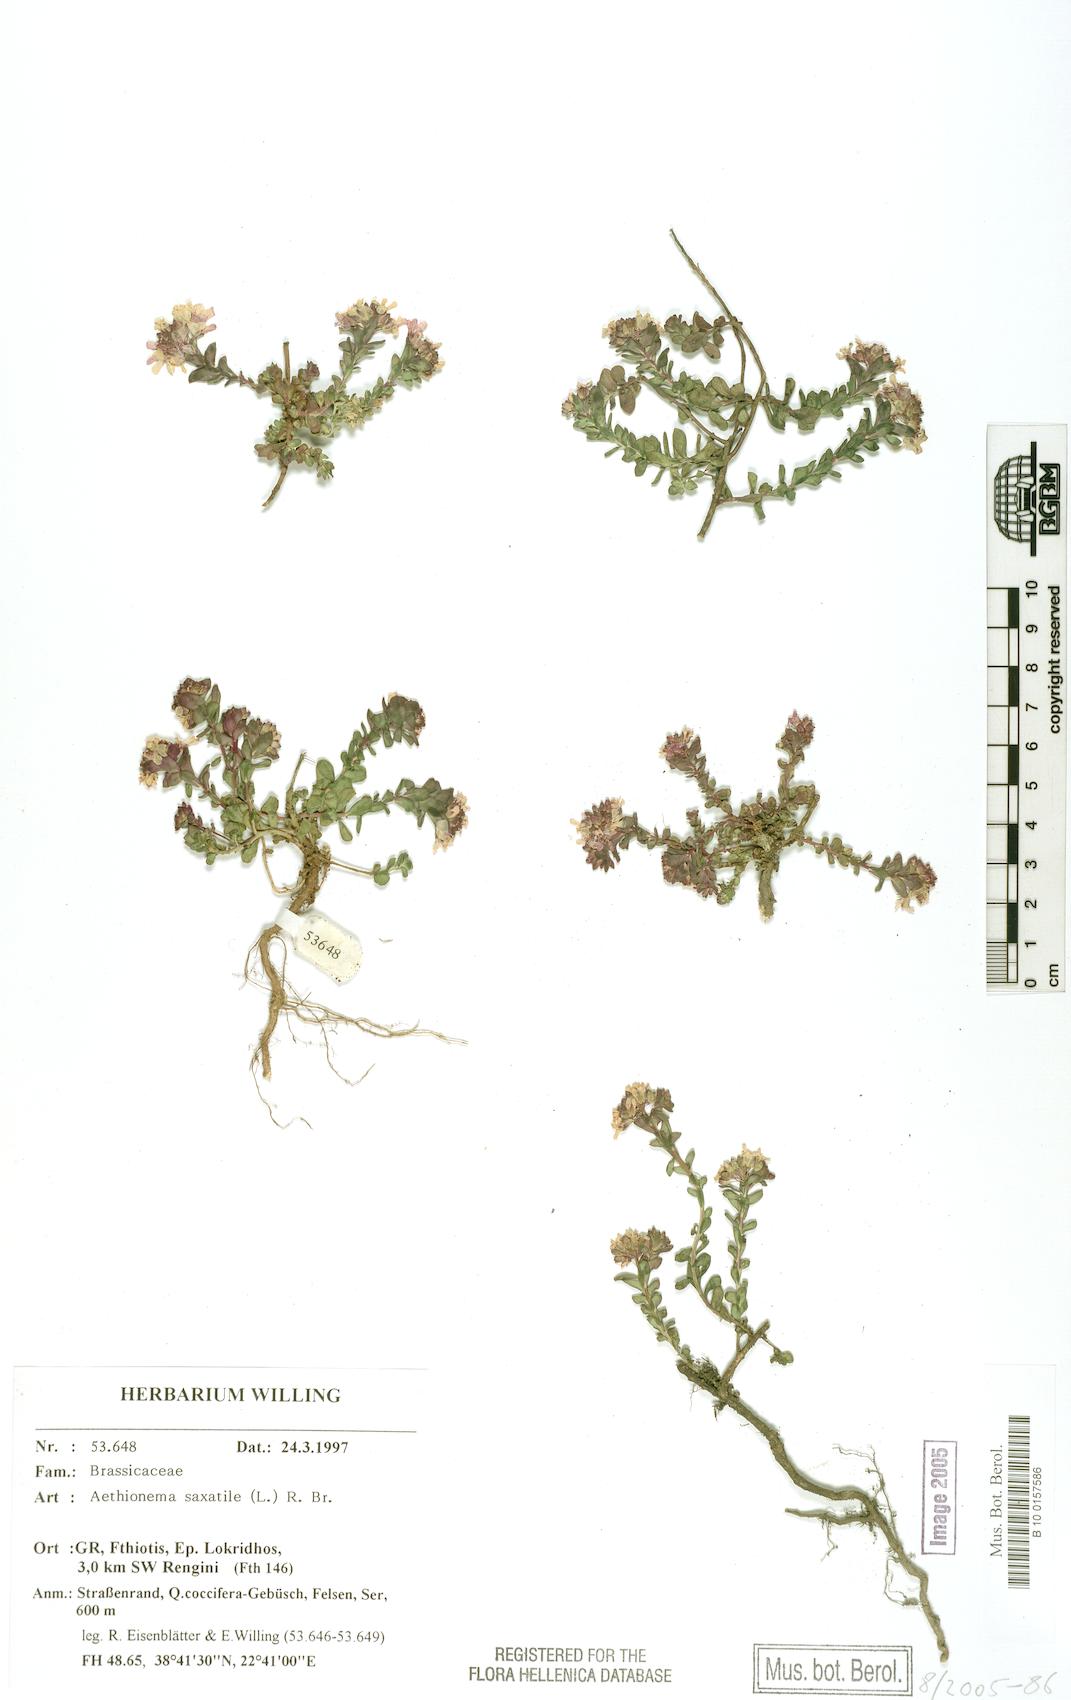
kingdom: Plantae
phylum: Tracheophyta
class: Magnoliopsida
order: Brassicales
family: Brassicaceae
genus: Aethionema
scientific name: Aethionema saxatile
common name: Burnt candytuft
